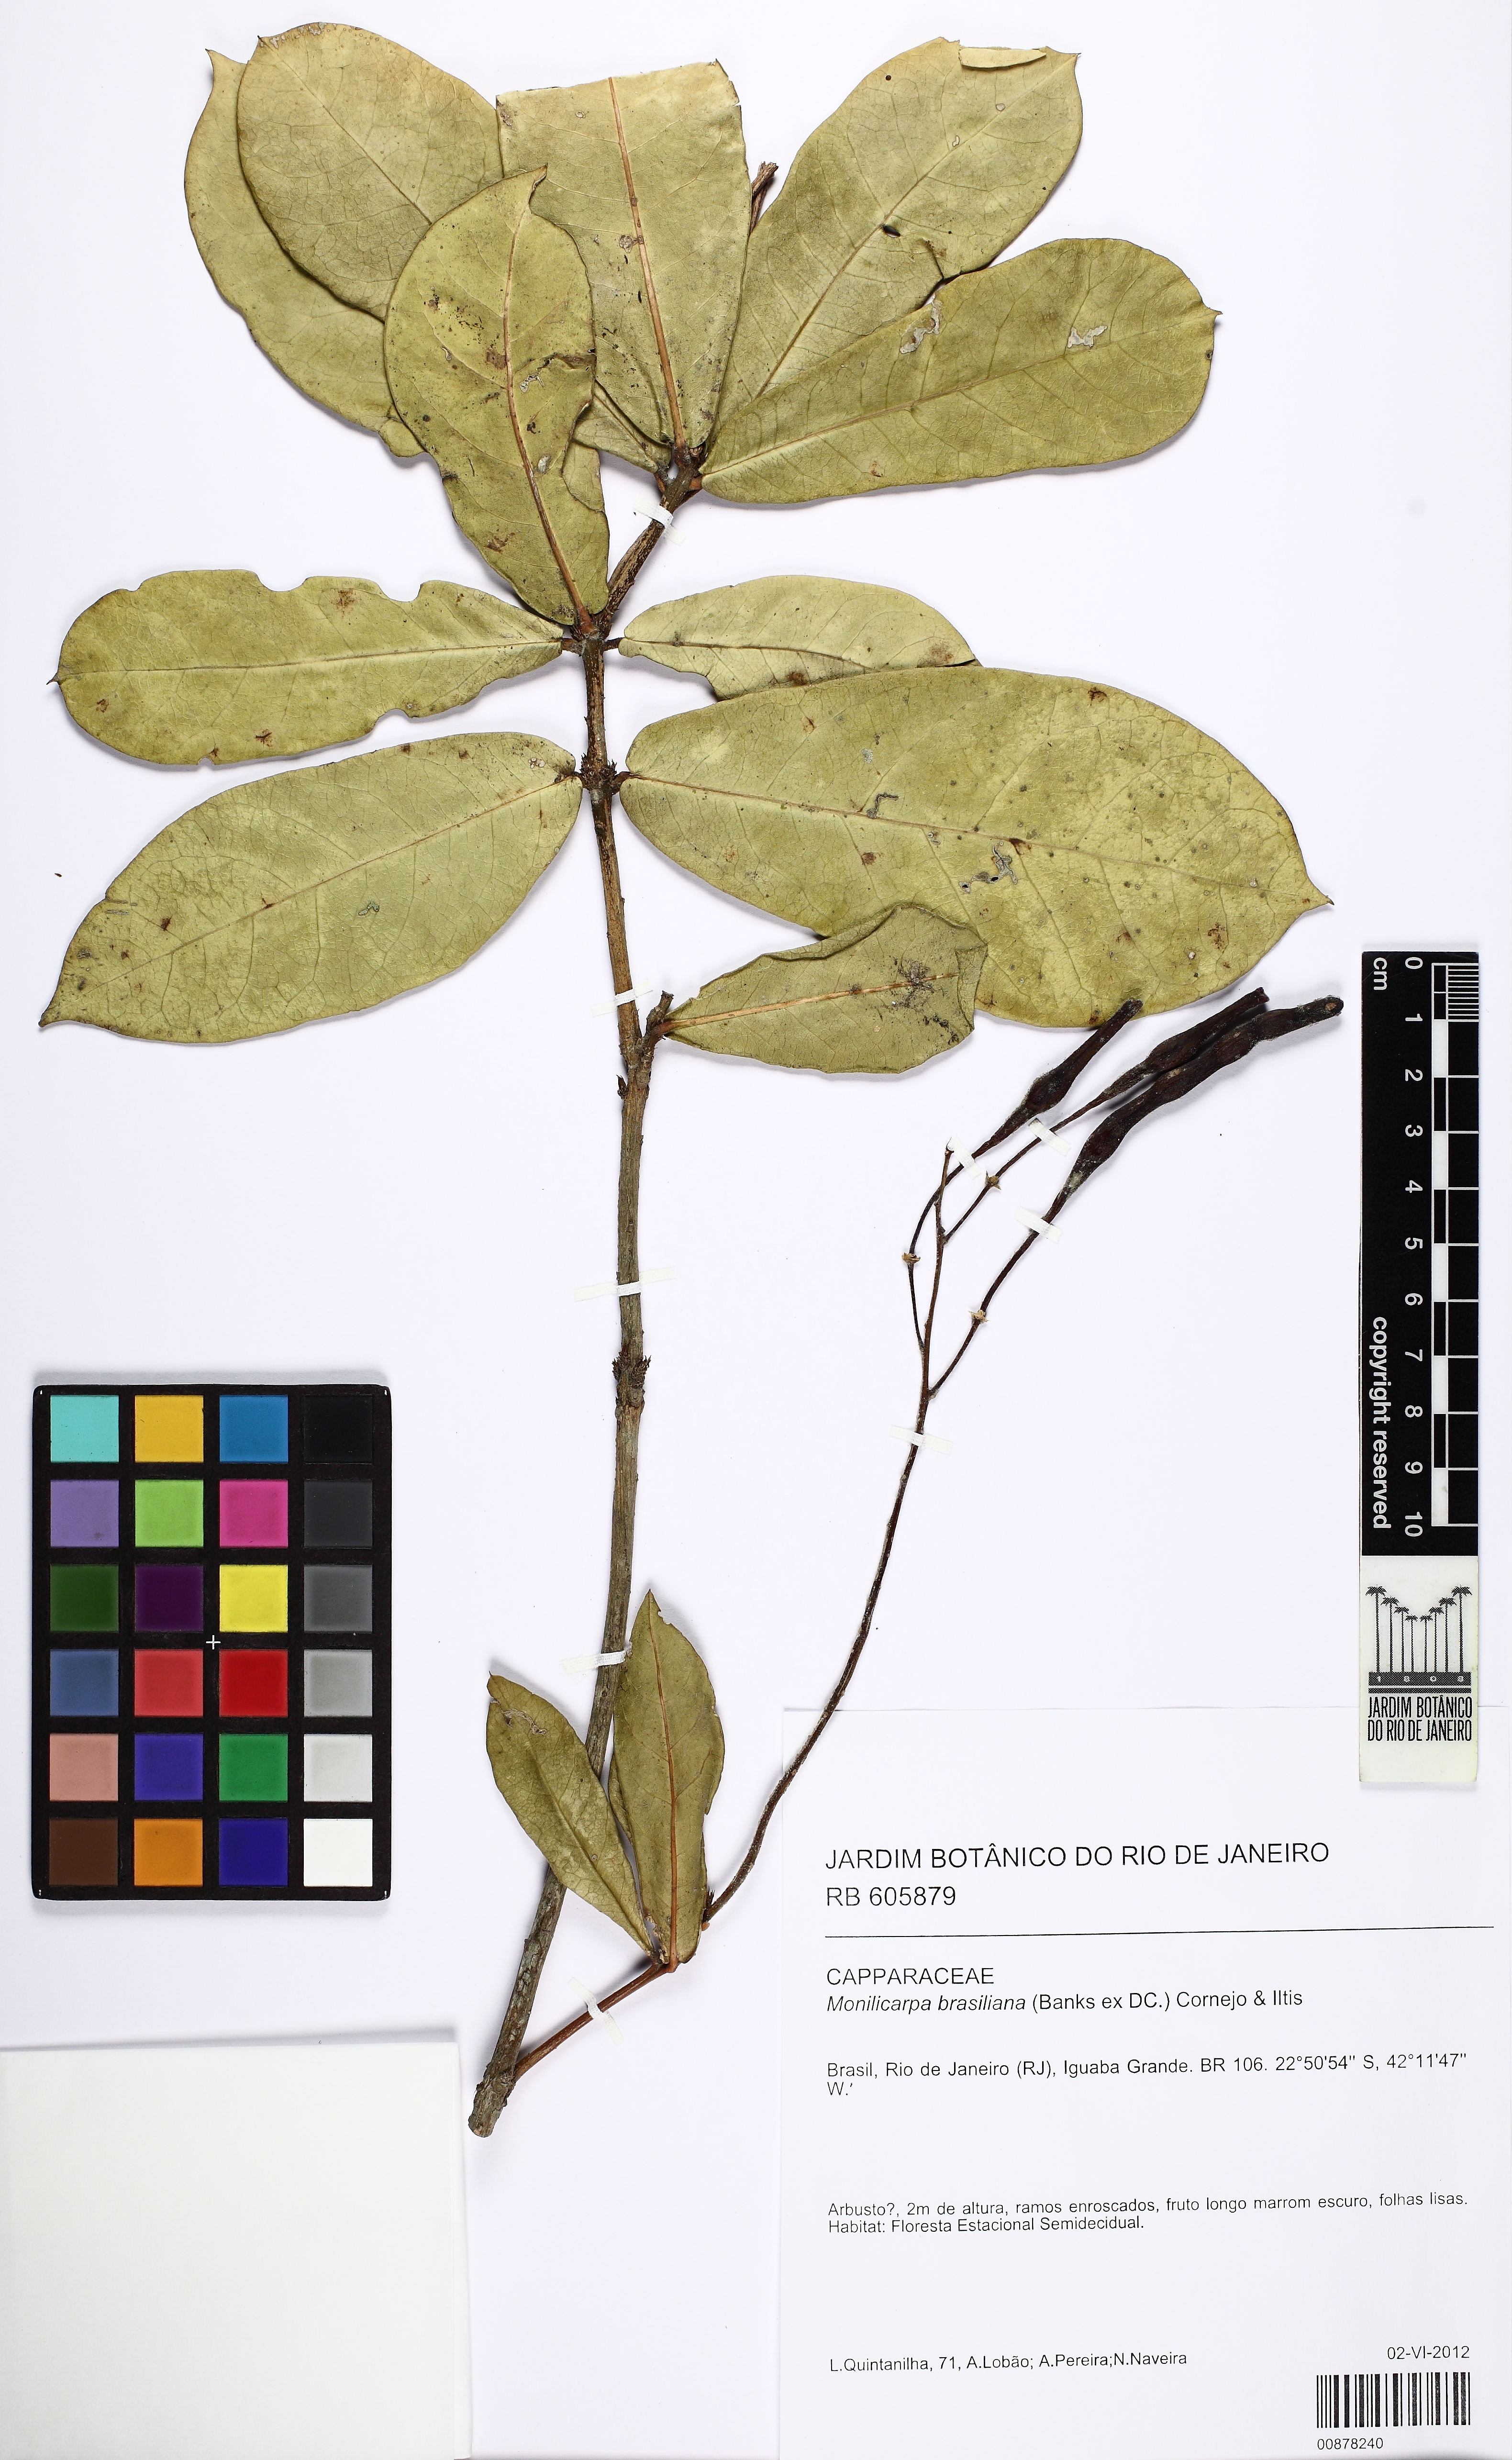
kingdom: Plantae
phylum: Tracheophyta
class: Magnoliopsida
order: Brassicales
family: Capparaceae
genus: Monilicarpa
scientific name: Monilicarpa brasiliana
